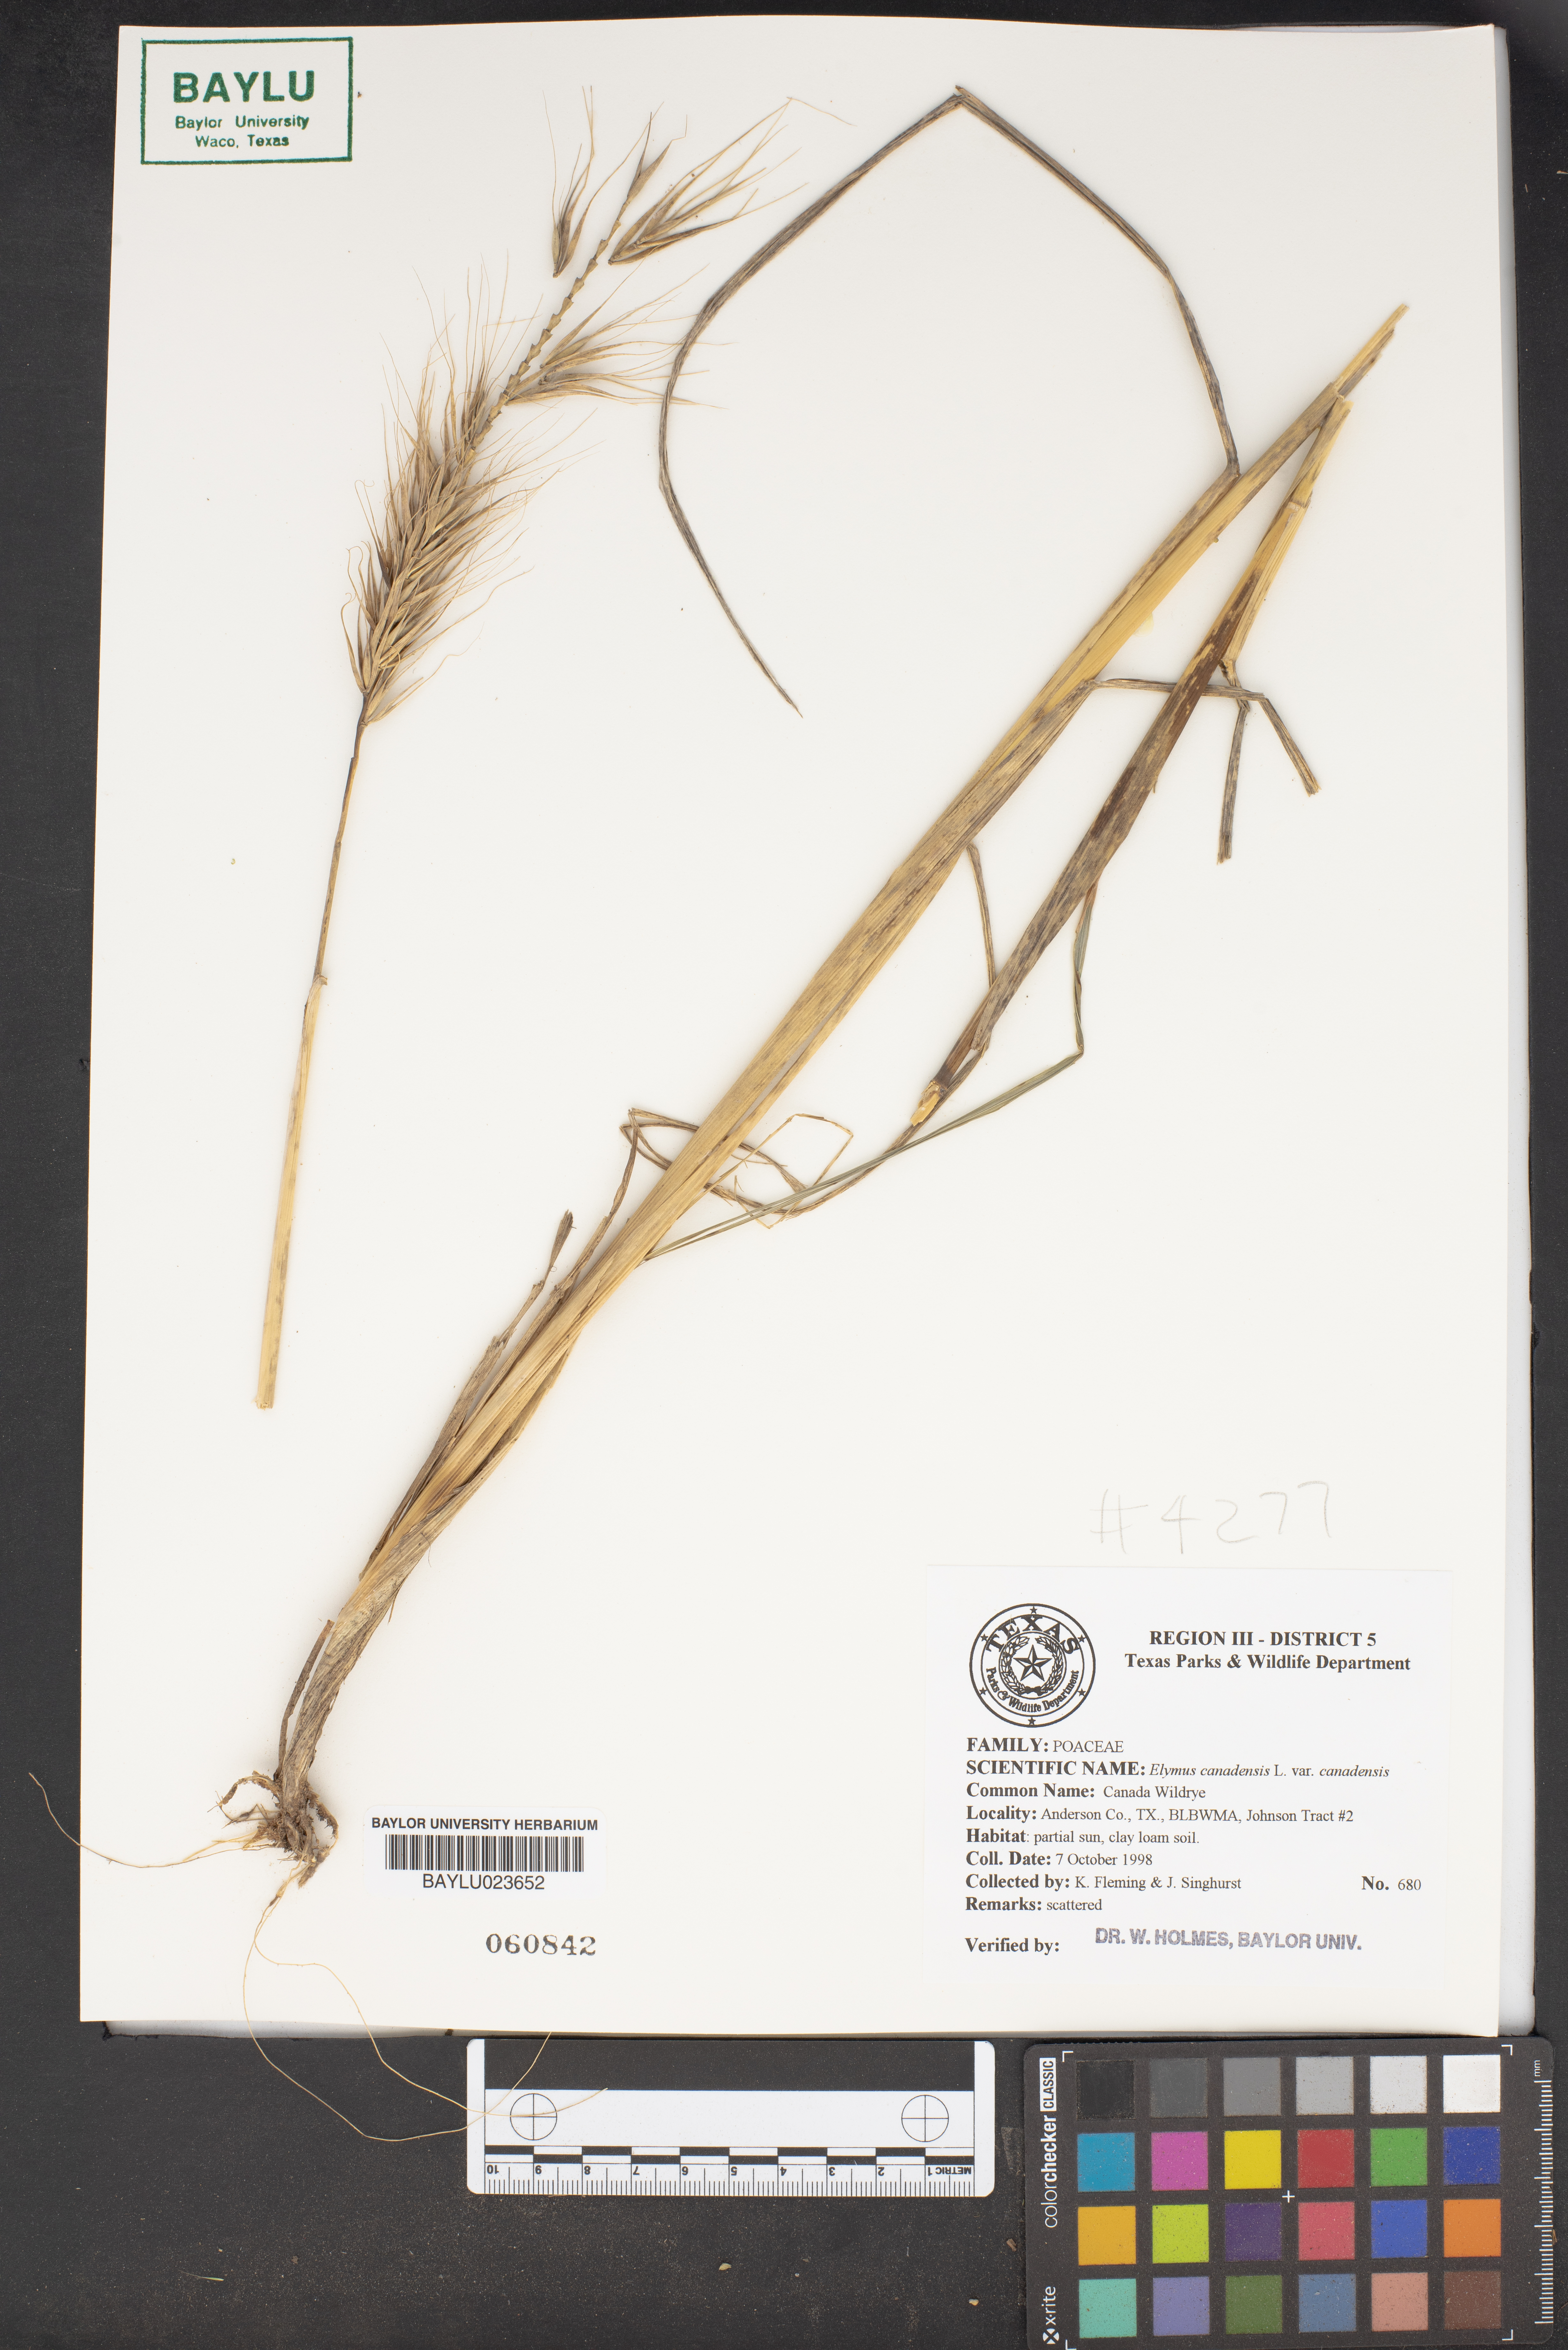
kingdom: Plantae
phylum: Tracheophyta
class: Liliopsida
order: Poales
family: Poaceae
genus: Elymus
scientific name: Elymus canadensis
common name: Canada wild rye
